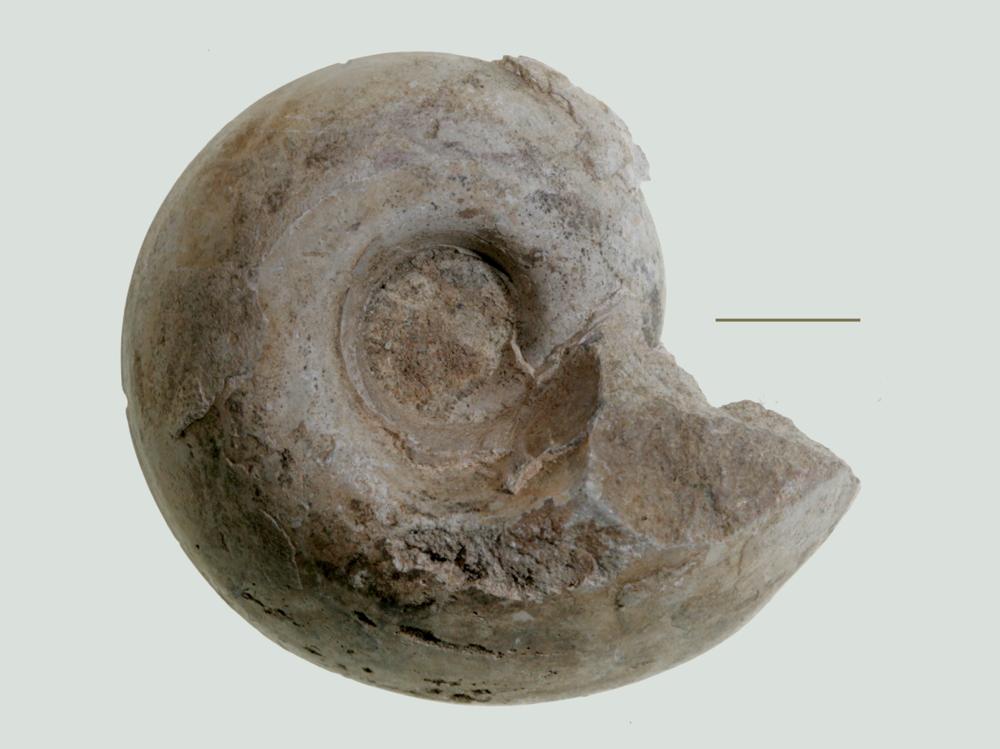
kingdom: Animalia
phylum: Mollusca
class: Gastropoda
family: Lesueurillidae
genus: Pararaphistoma
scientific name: Pararaphistoma Helicites qualteriata
